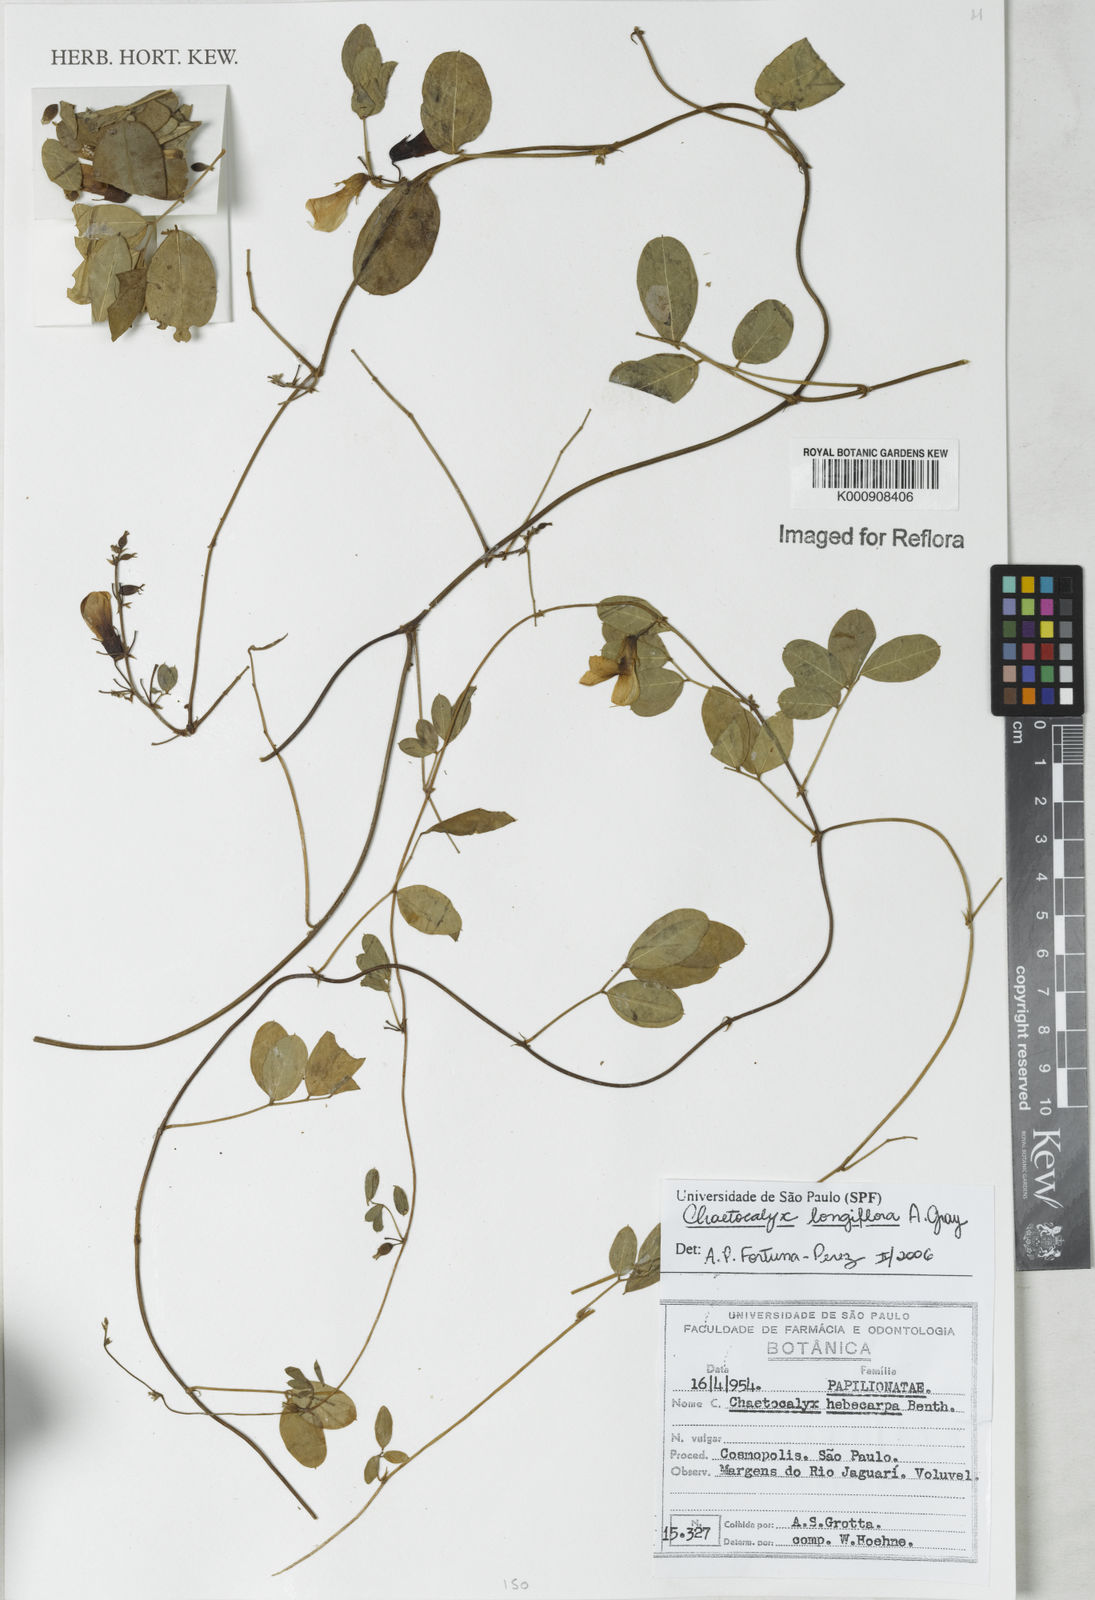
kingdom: Plantae
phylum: Tracheophyta
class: Magnoliopsida
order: Fabales
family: Fabaceae
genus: Nissolia
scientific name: Nissolia longiflora
